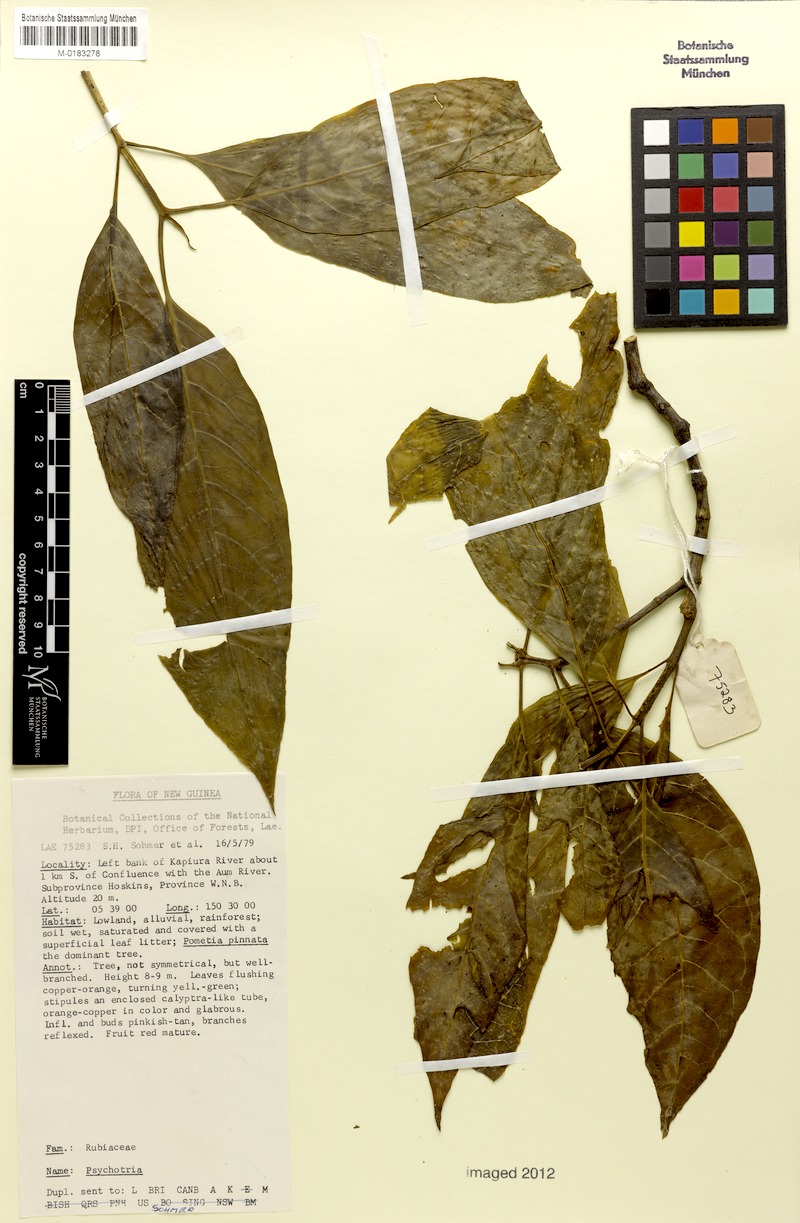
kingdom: Plantae
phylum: Tracheophyta
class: Magnoliopsida
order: Gentianales
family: Rubiaceae
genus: Eumachia
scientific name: Eumachia damasiana
